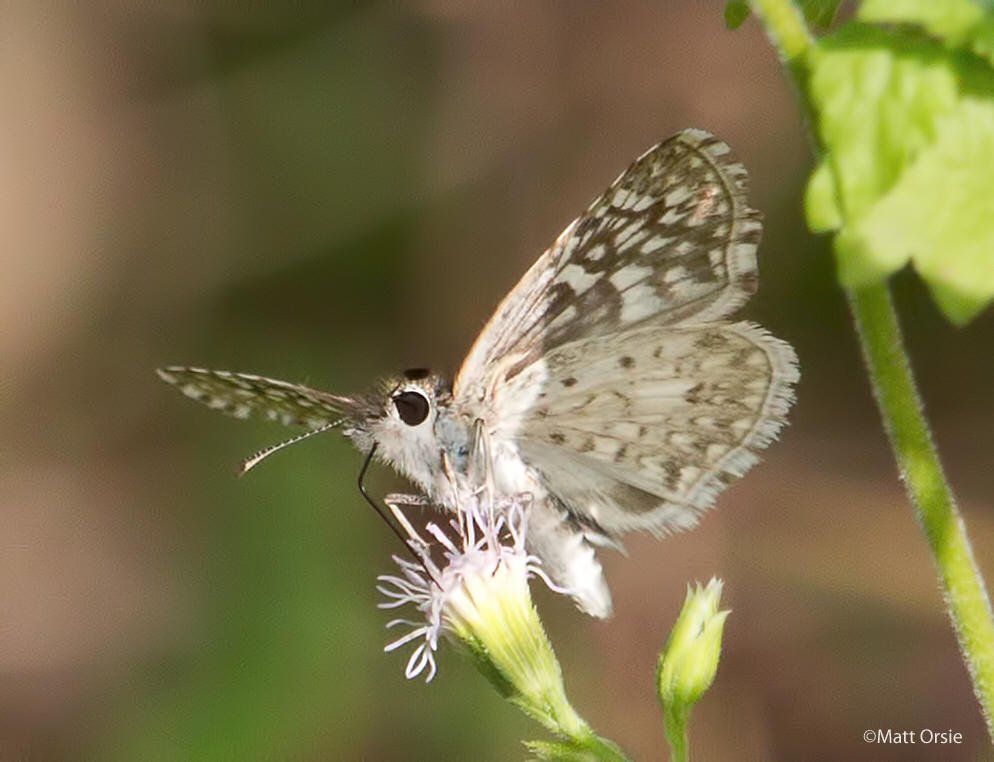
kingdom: Animalia
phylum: Arthropoda
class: Insecta
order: Lepidoptera
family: Hesperiidae
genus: Pyrgus
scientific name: Pyrgus oileus
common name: Desert Checkered-Skipper
